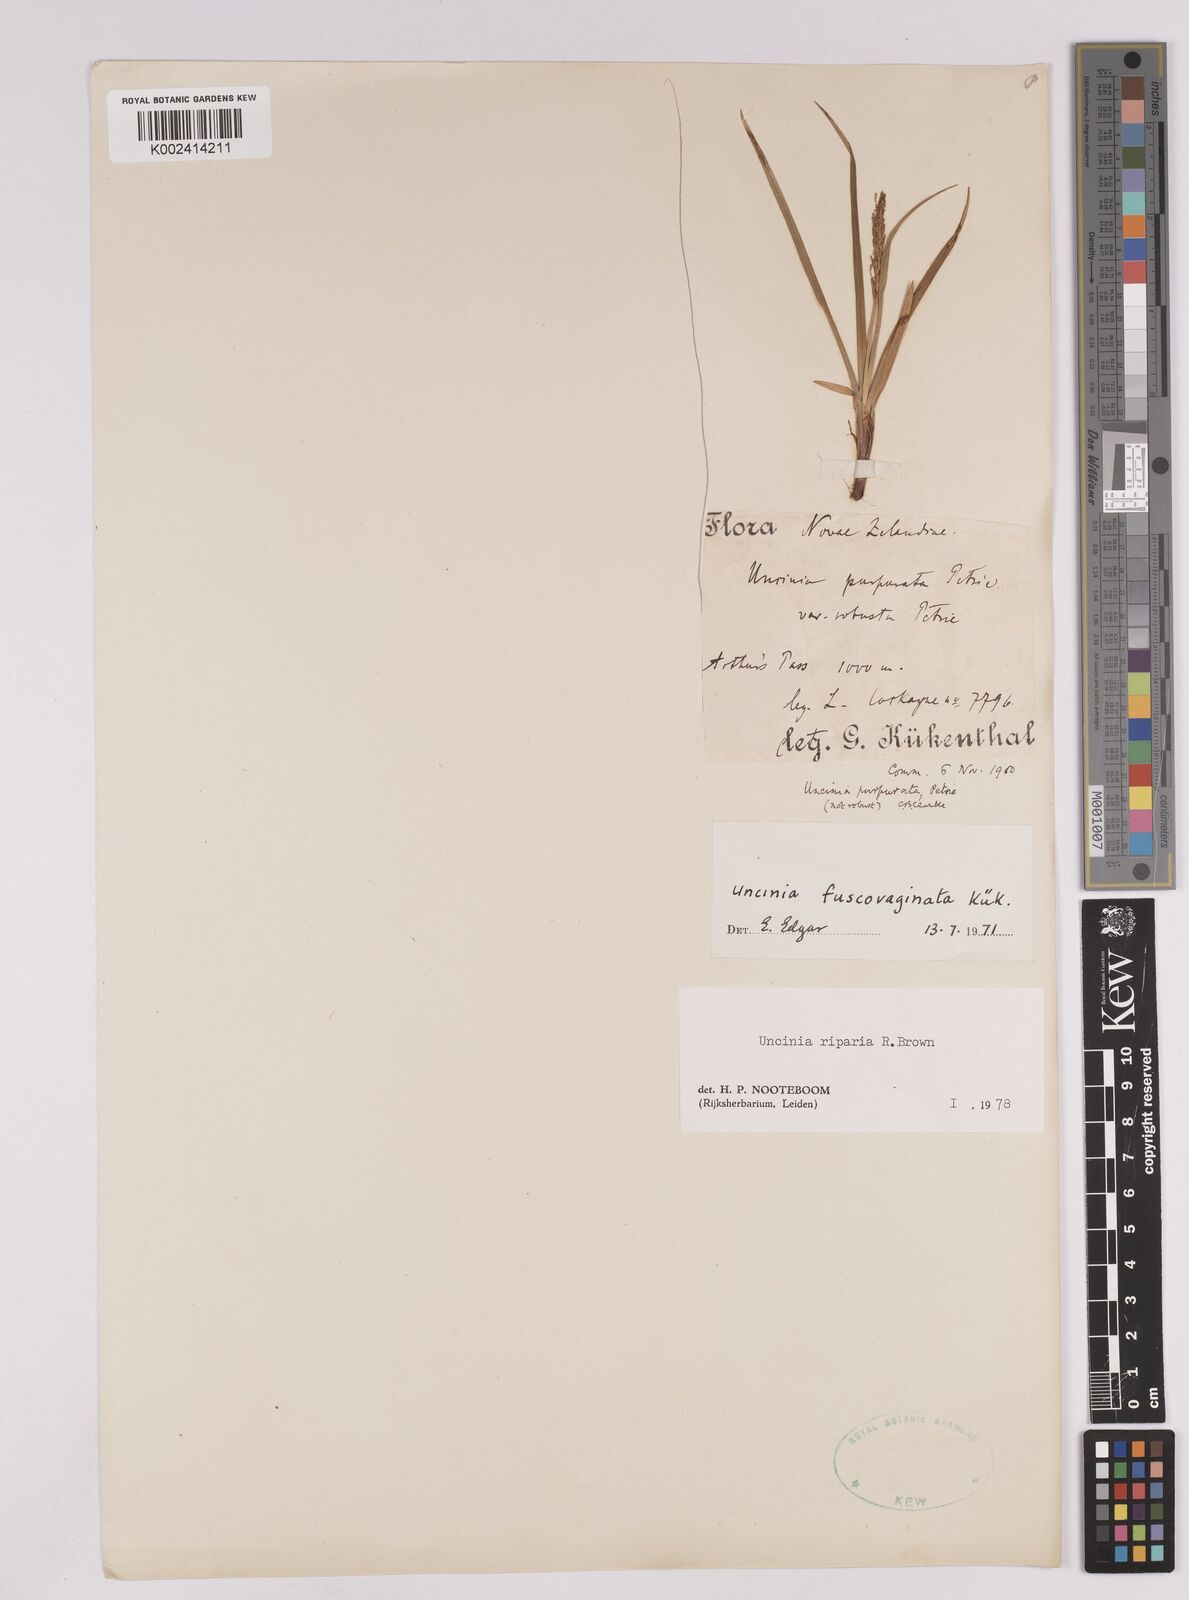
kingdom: Plantae
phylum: Tracheophyta
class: Liliopsida
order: Poales
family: Cyperaceae
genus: Carex
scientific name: Carex penalpina
